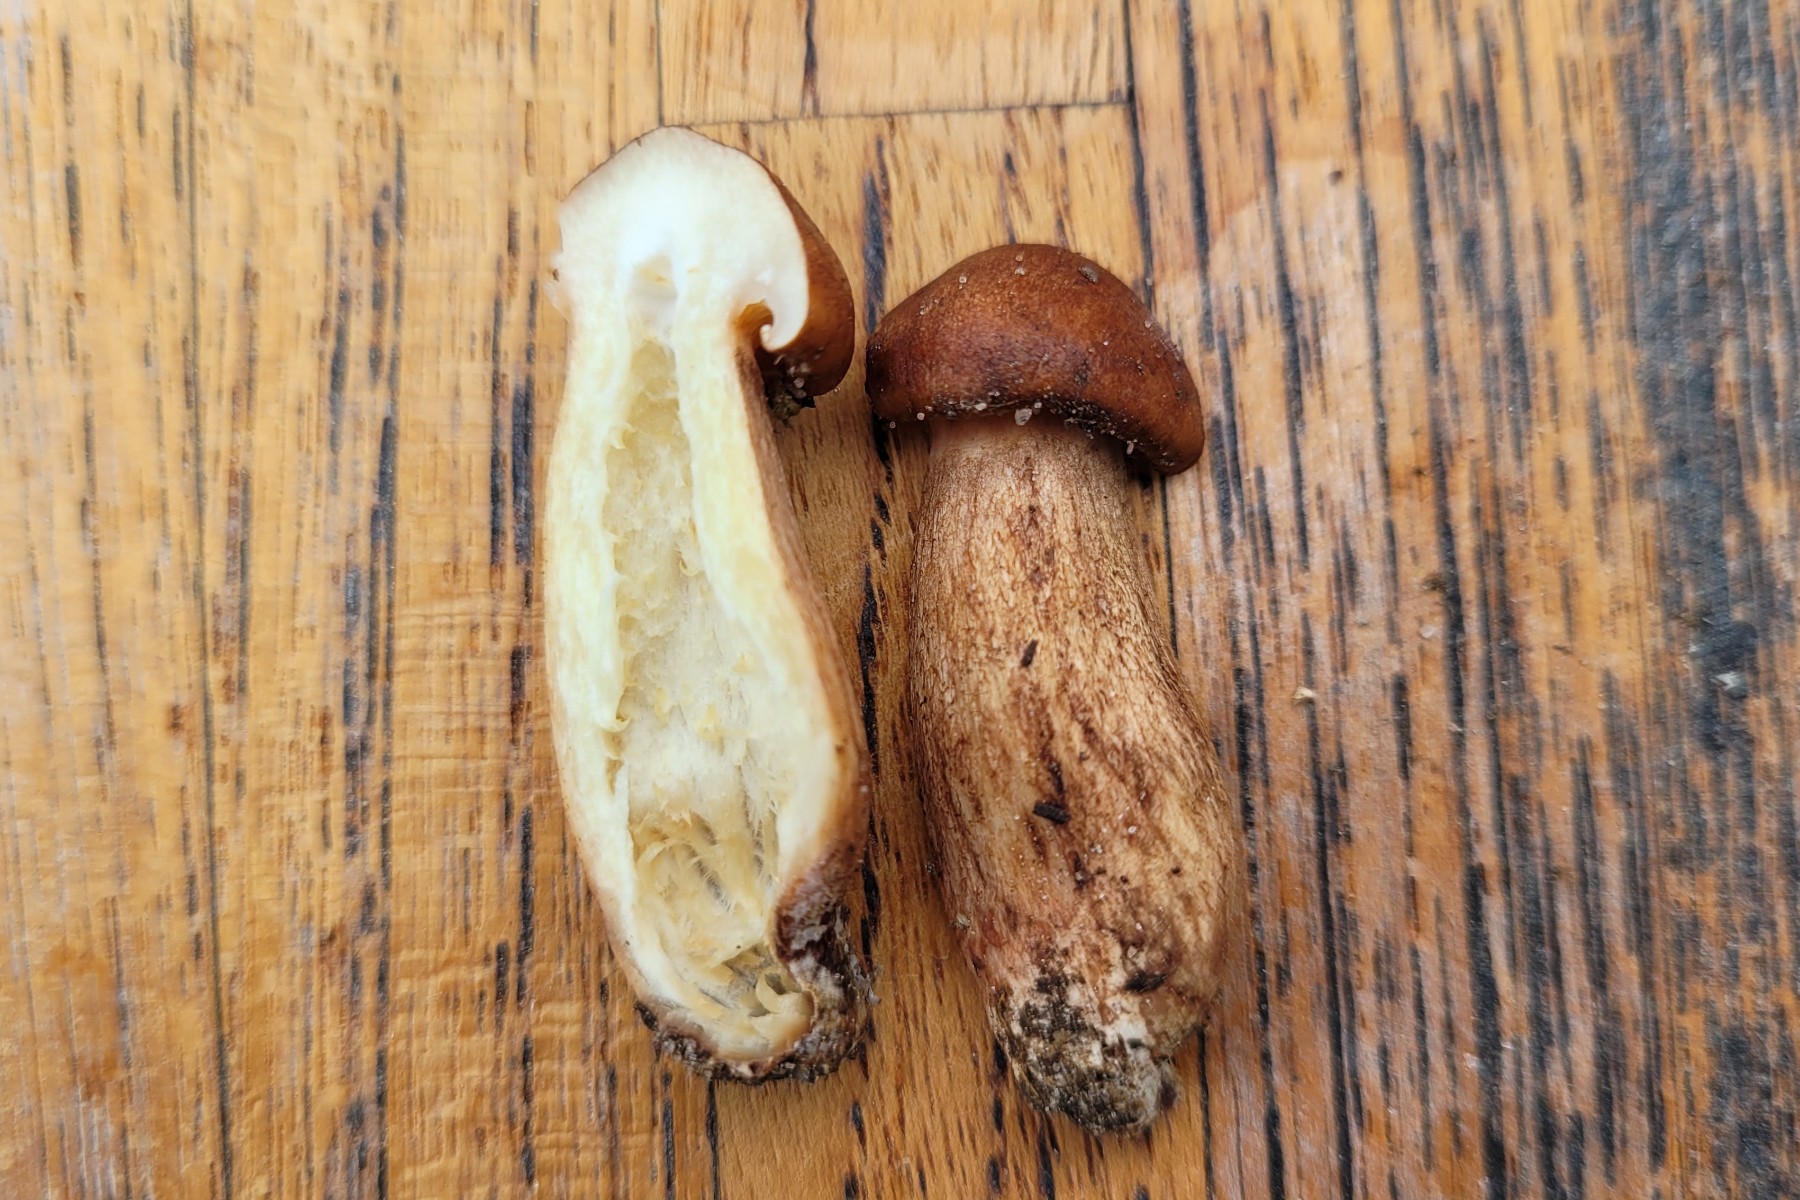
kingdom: Fungi
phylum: Basidiomycota
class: Agaricomycetes
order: Agaricales
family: Tricholomataceae
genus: Tricholoma
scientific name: Tricholoma fulvum
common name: birke-ridderhat
